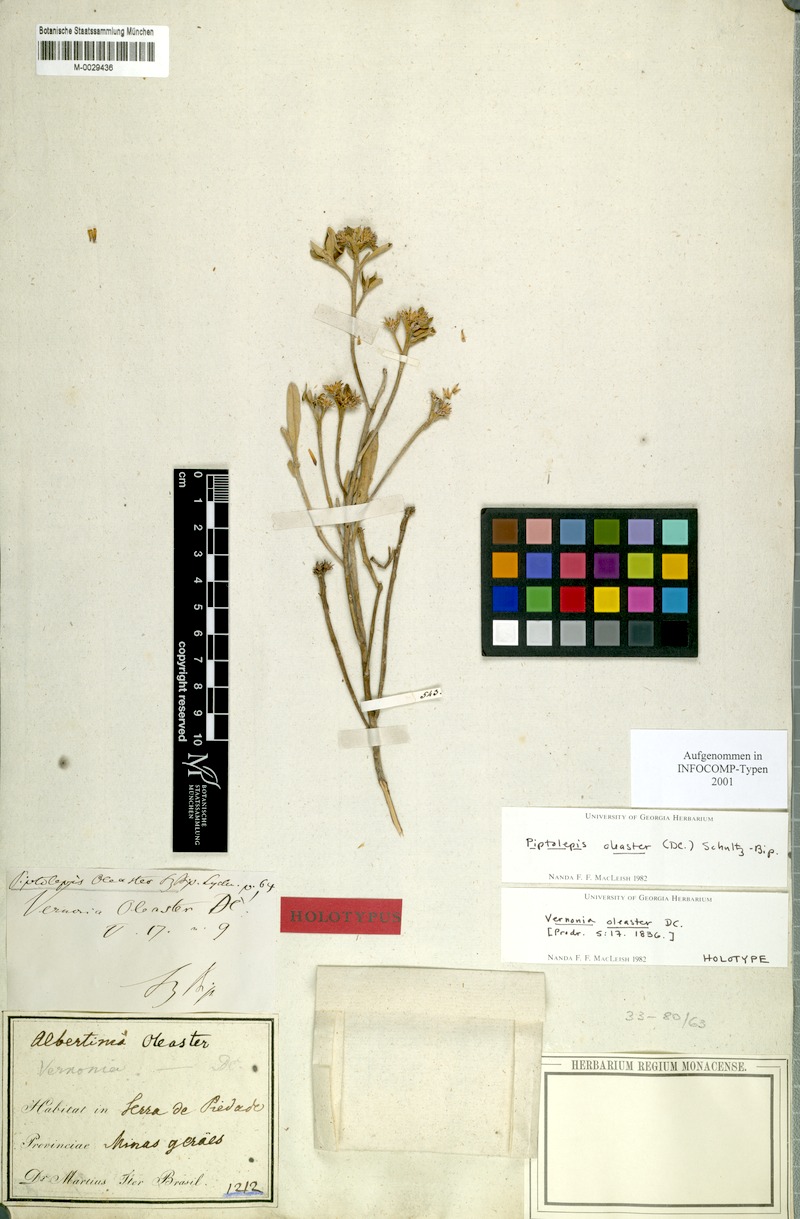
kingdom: Plantae
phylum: Tracheophyta
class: Magnoliopsida
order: Asterales
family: Asteraceae
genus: Eremanthus
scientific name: Eremanthus crotonoides
